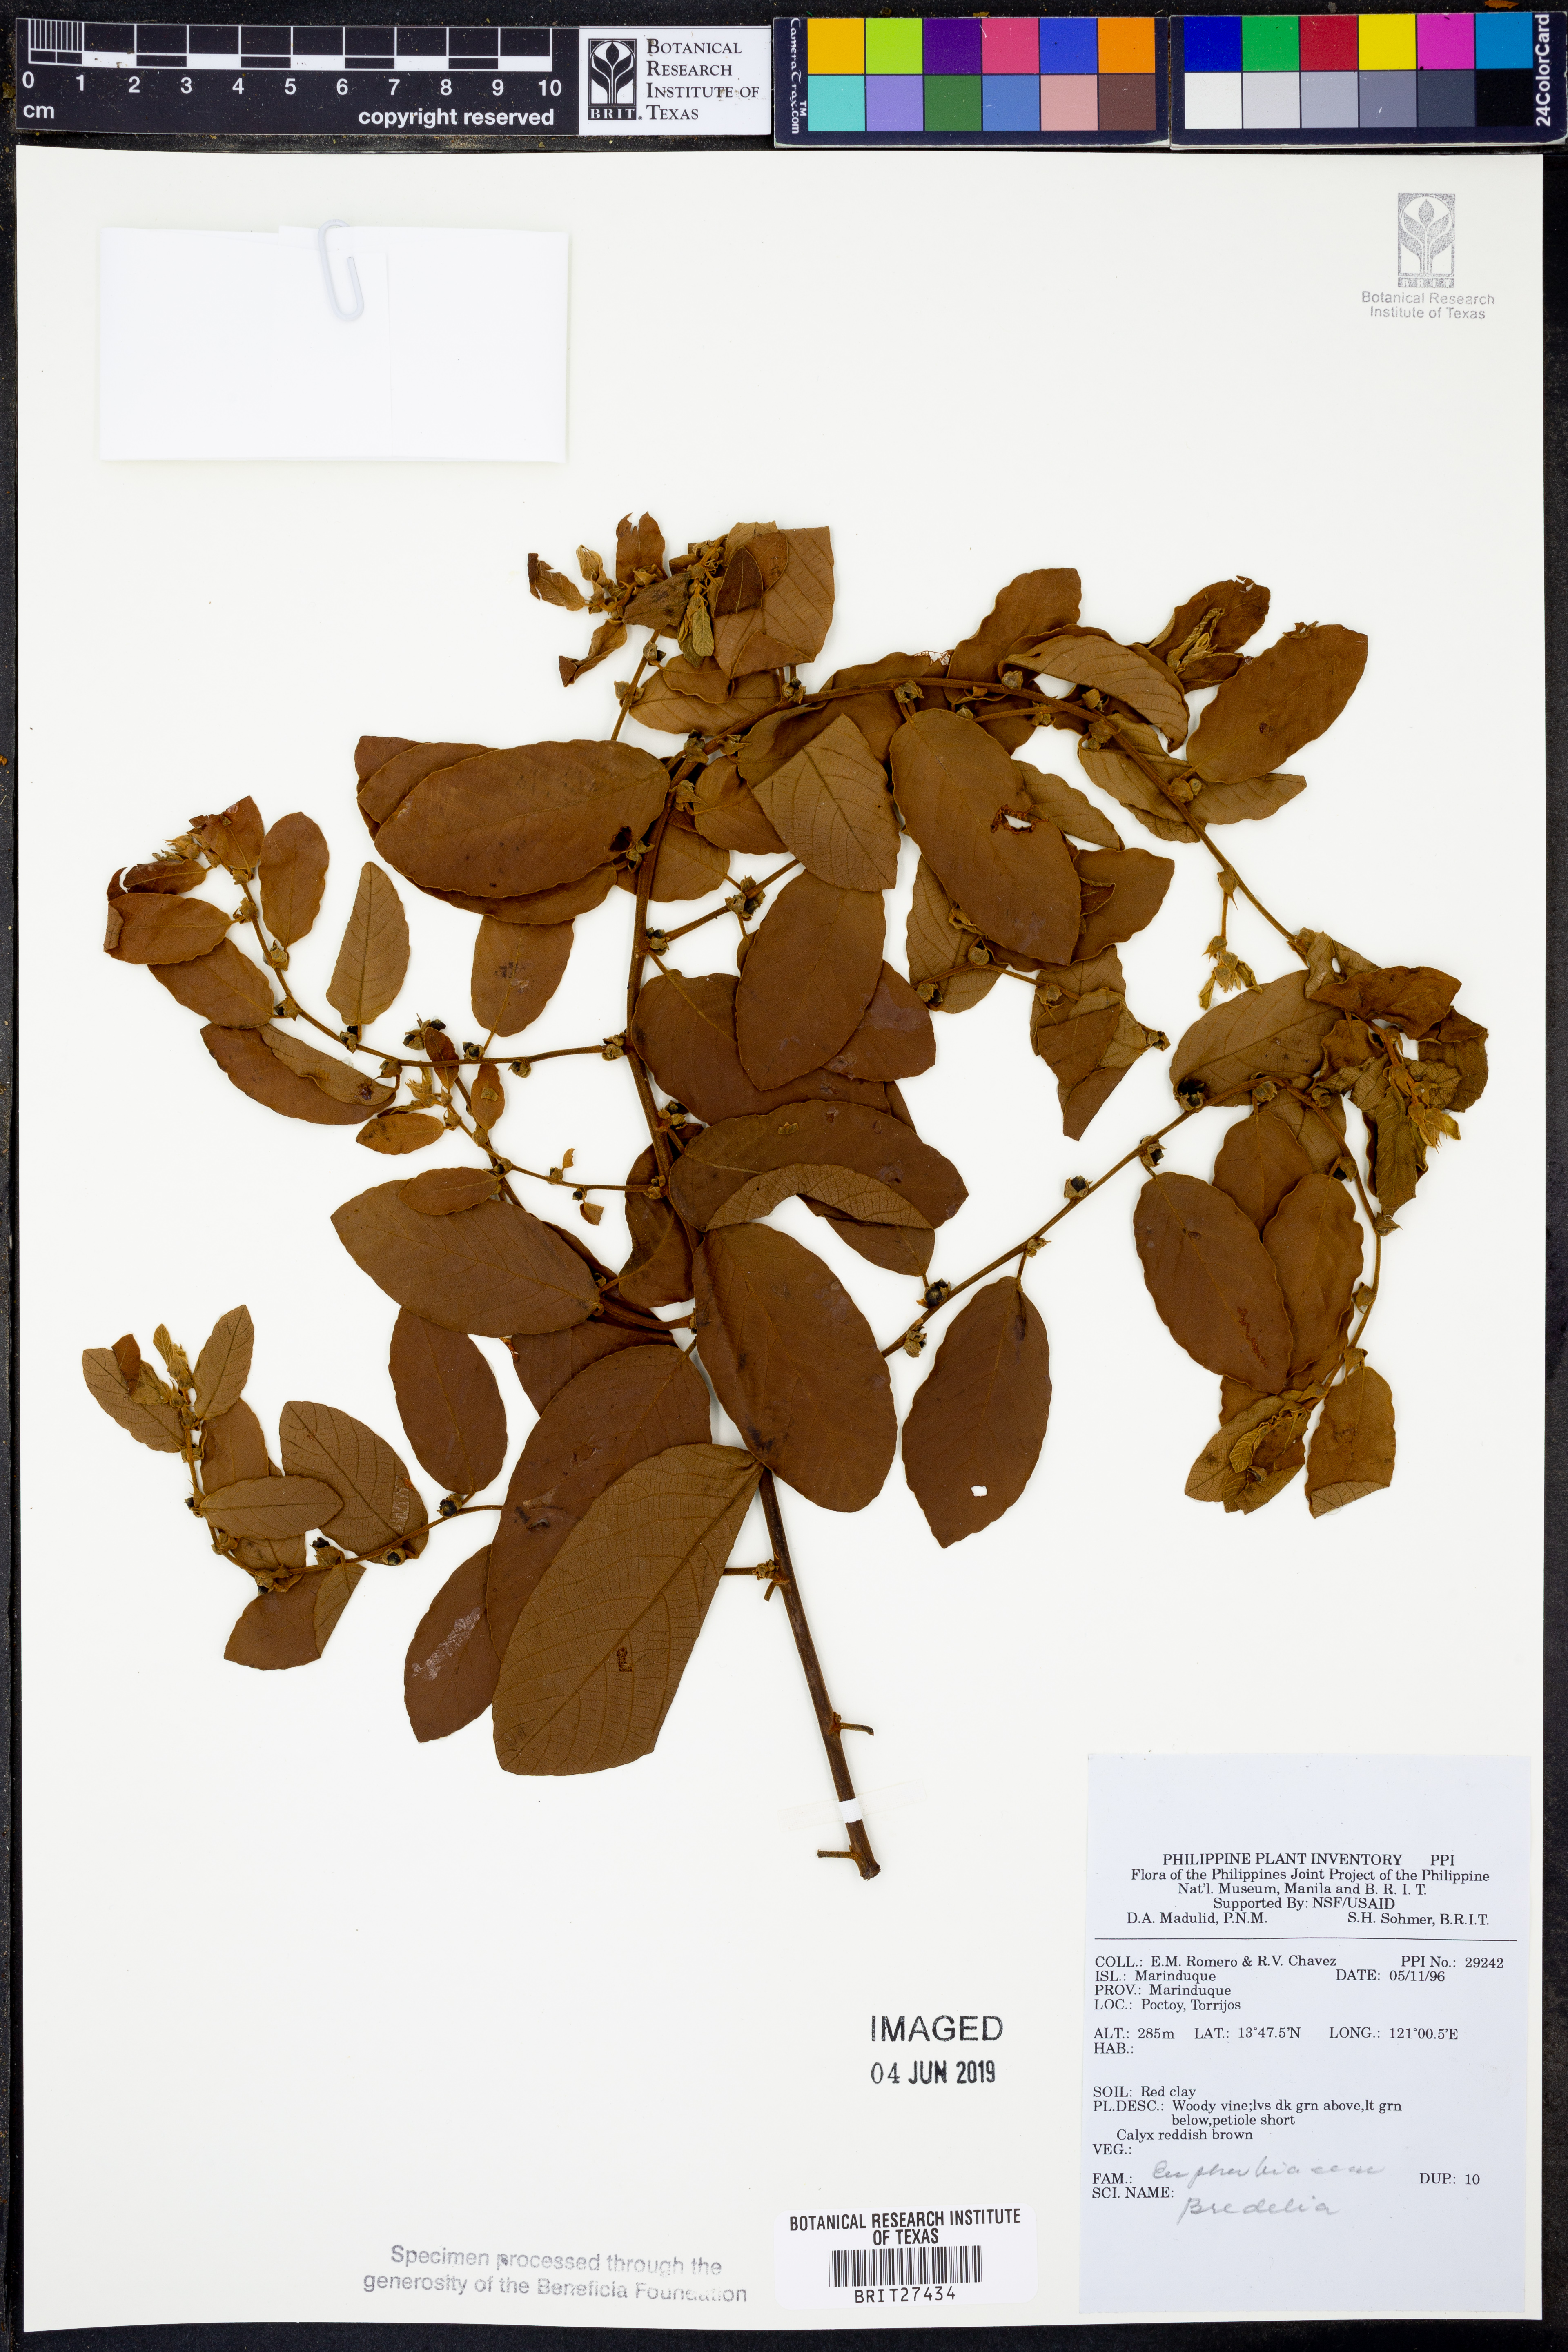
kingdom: Plantae
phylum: Tracheophyta
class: Magnoliopsida
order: Malpighiales
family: Euphorbiaceae
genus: Bridelia
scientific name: Bridelia
